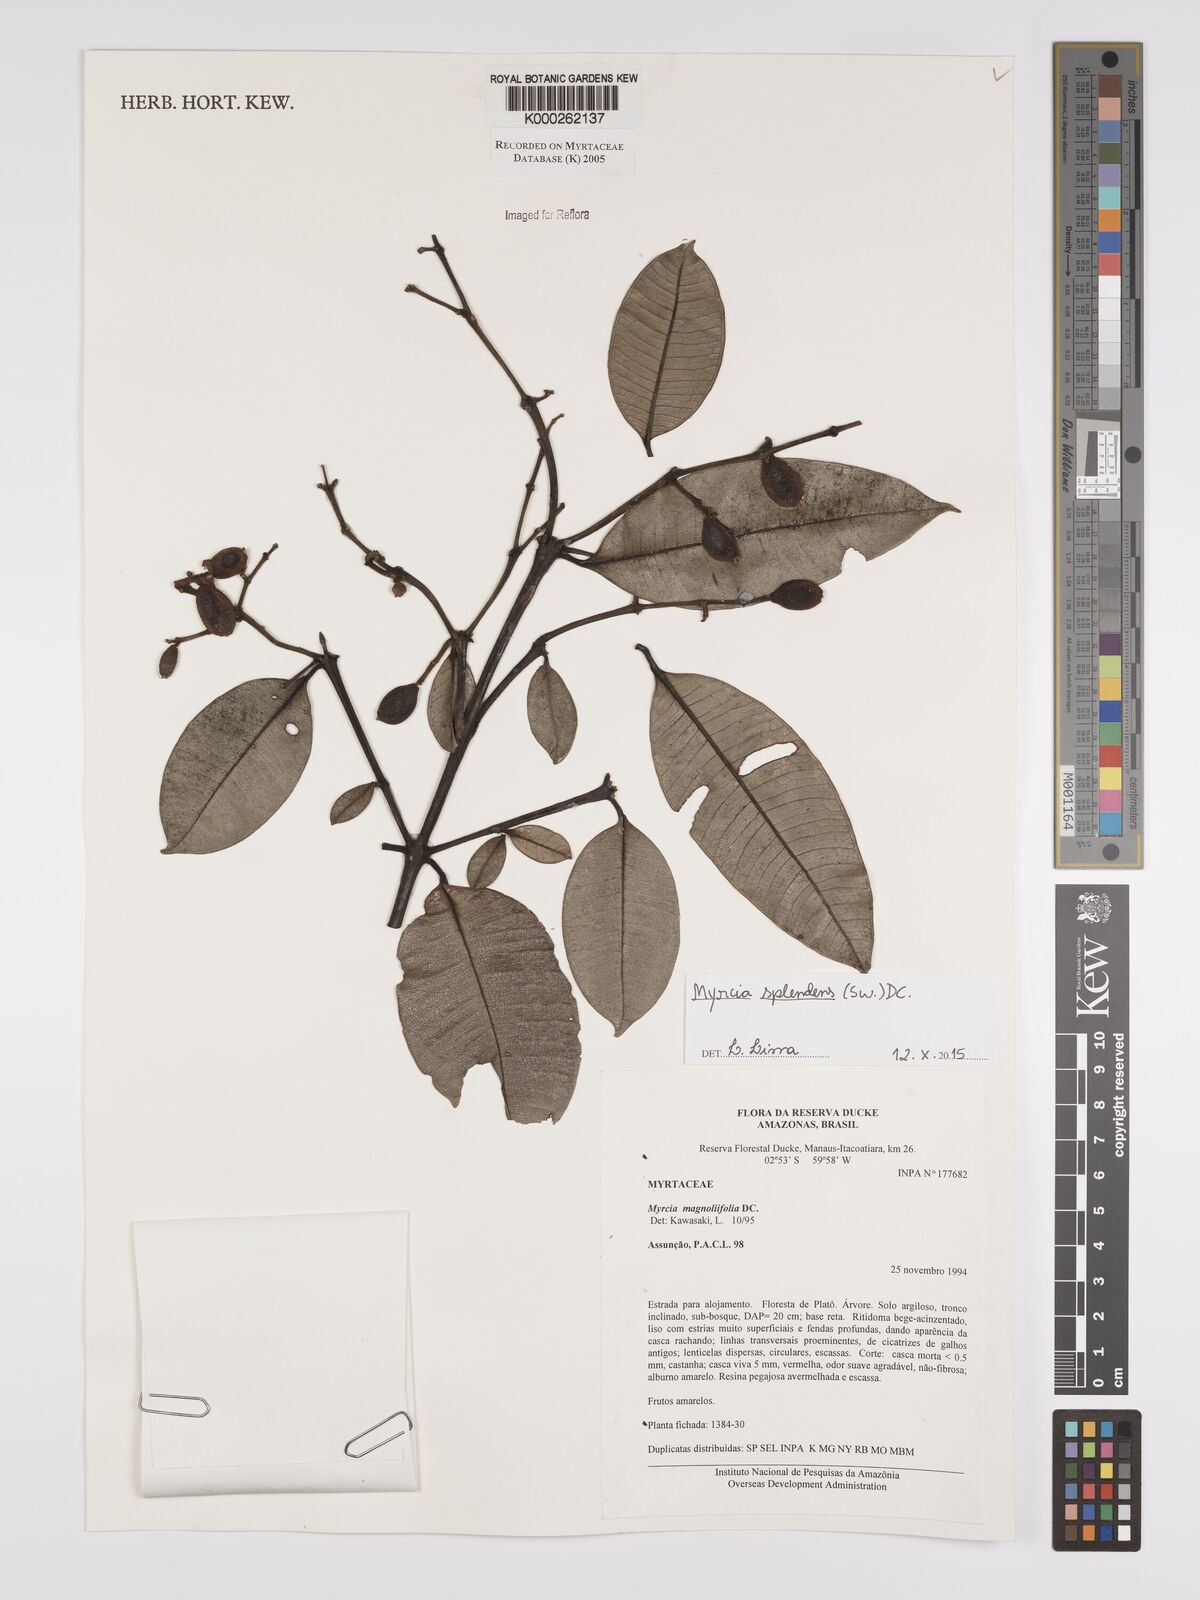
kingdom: Plantae
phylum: Tracheophyta
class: Magnoliopsida
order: Myrtales
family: Myrtaceae
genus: Myrcia
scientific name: Myrcia splendens
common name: Surinam cherry
